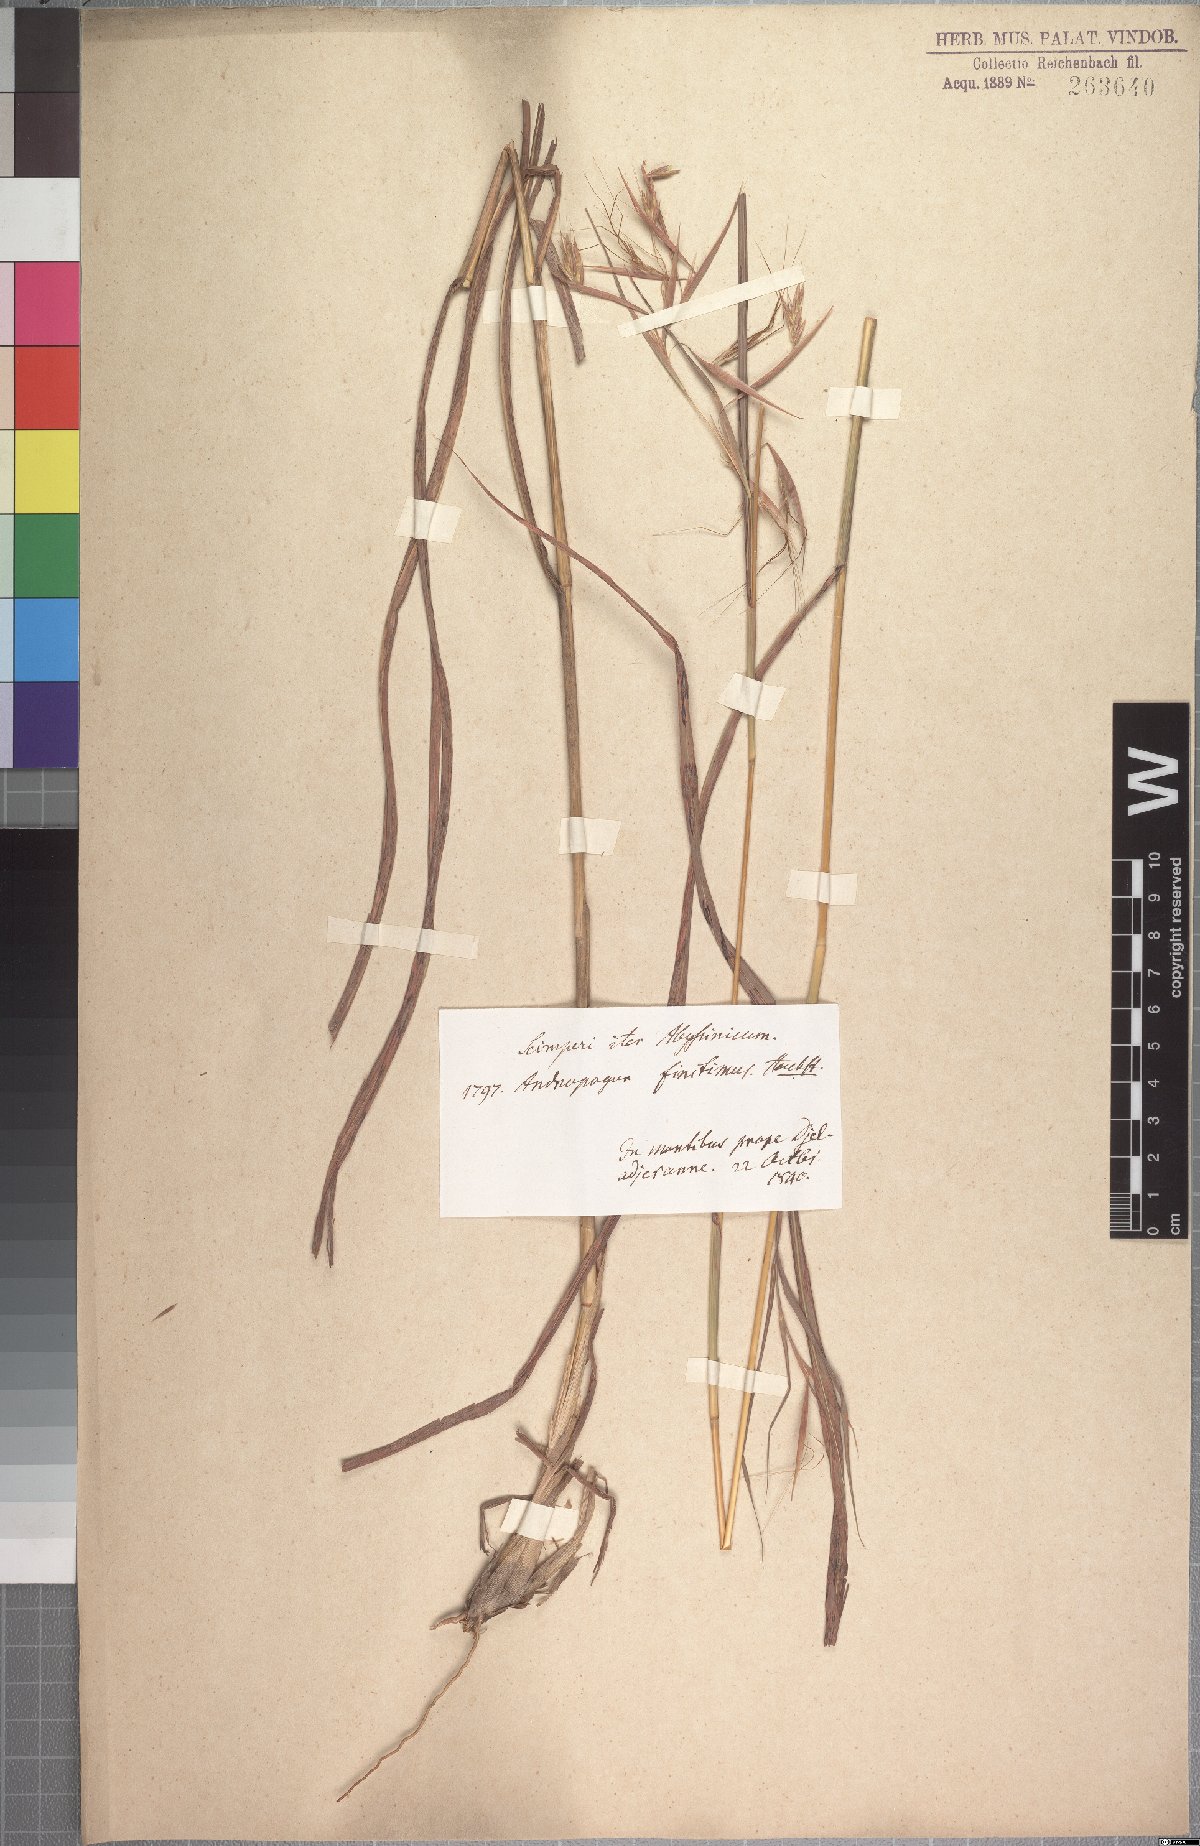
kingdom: Plantae
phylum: Tracheophyta
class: Liliopsida
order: Poales
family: Poaceae
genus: Hyparrhenia
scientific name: Hyparrhenia finitima
